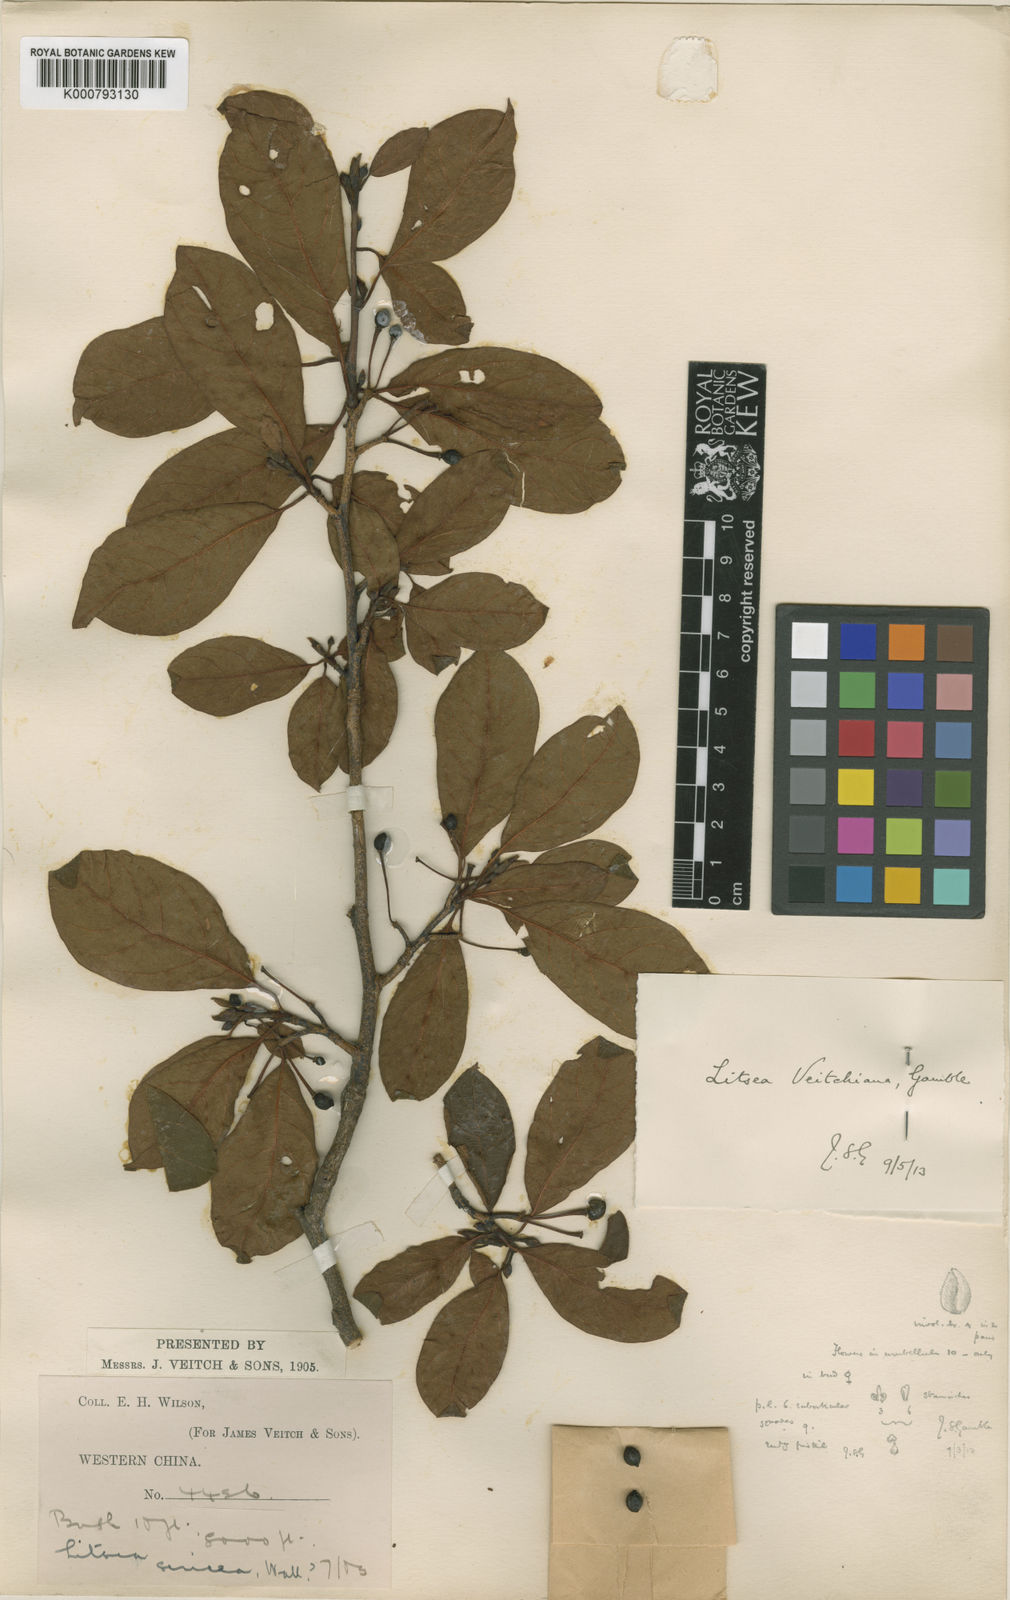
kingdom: Plantae
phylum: Tracheophyta
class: Magnoliopsida
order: Laurales
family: Lauraceae
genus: Litsea
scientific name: Litsea veitchiana
